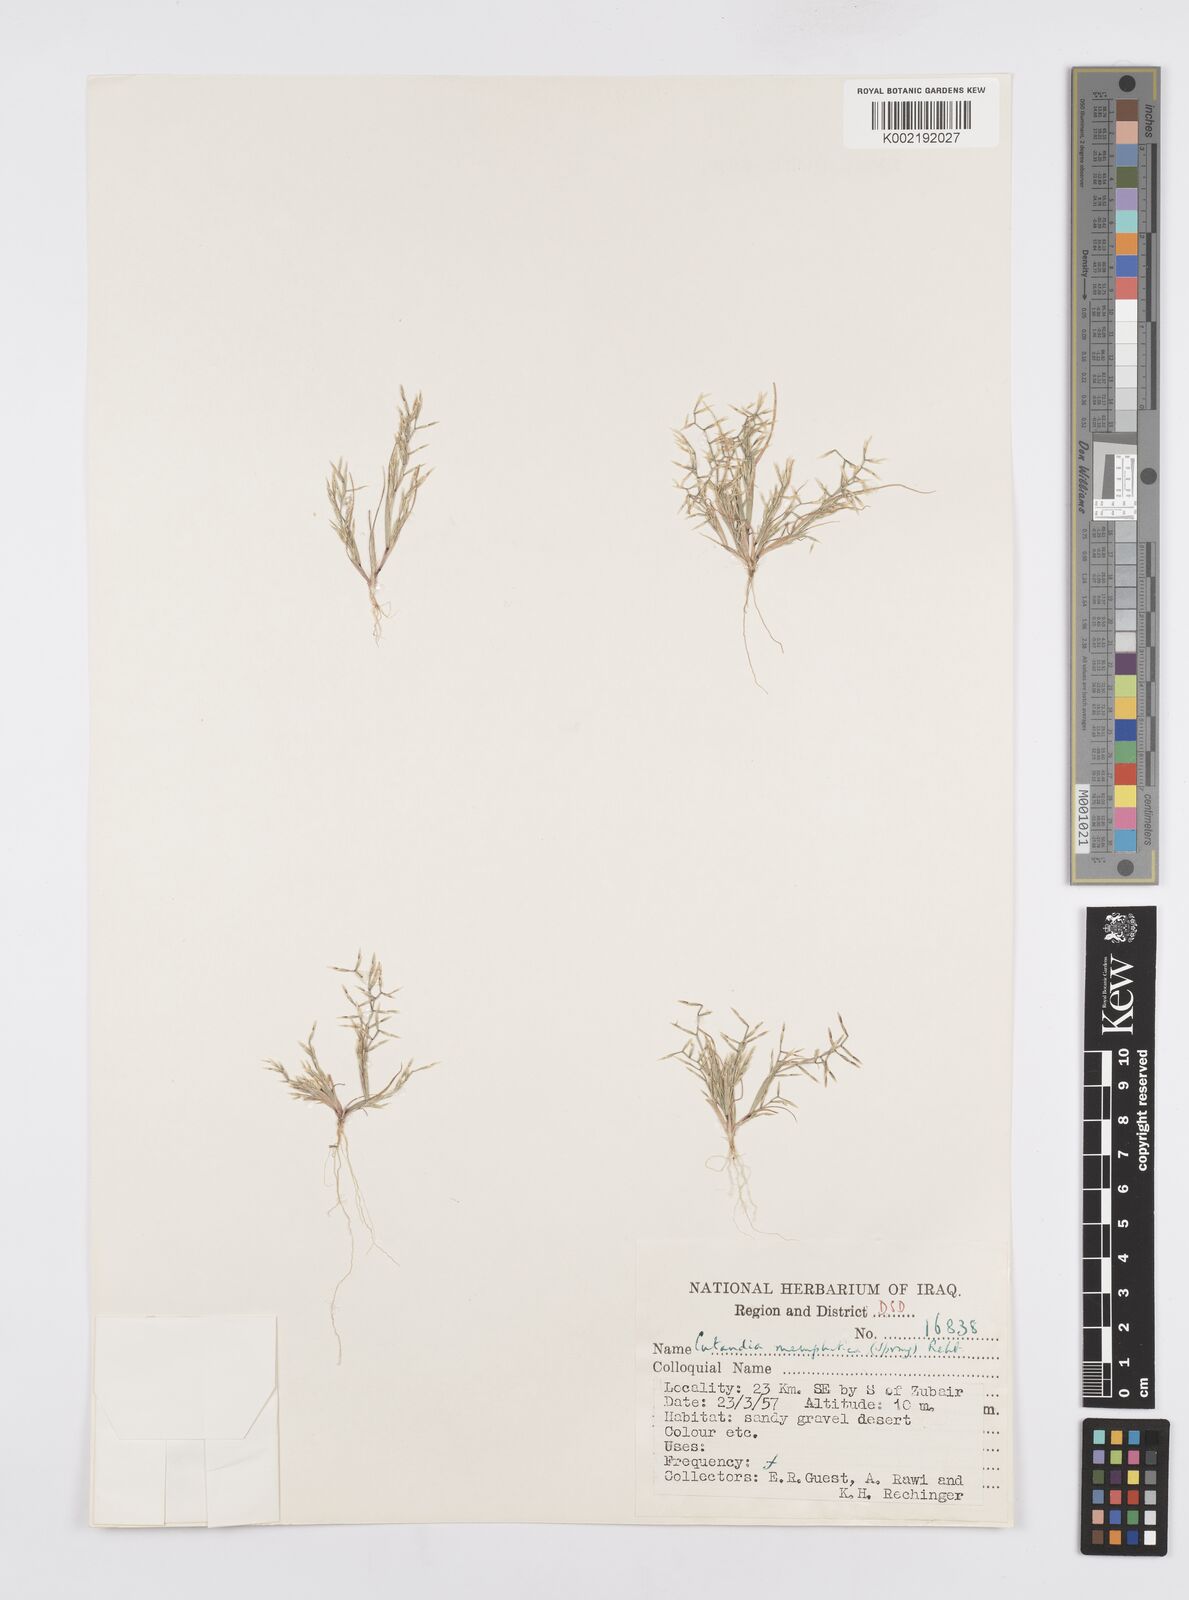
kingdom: Plantae
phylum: Tracheophyta
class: Liliopsida
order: Poales
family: Poaceae
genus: Cutandia
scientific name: Cutandia memphitica
